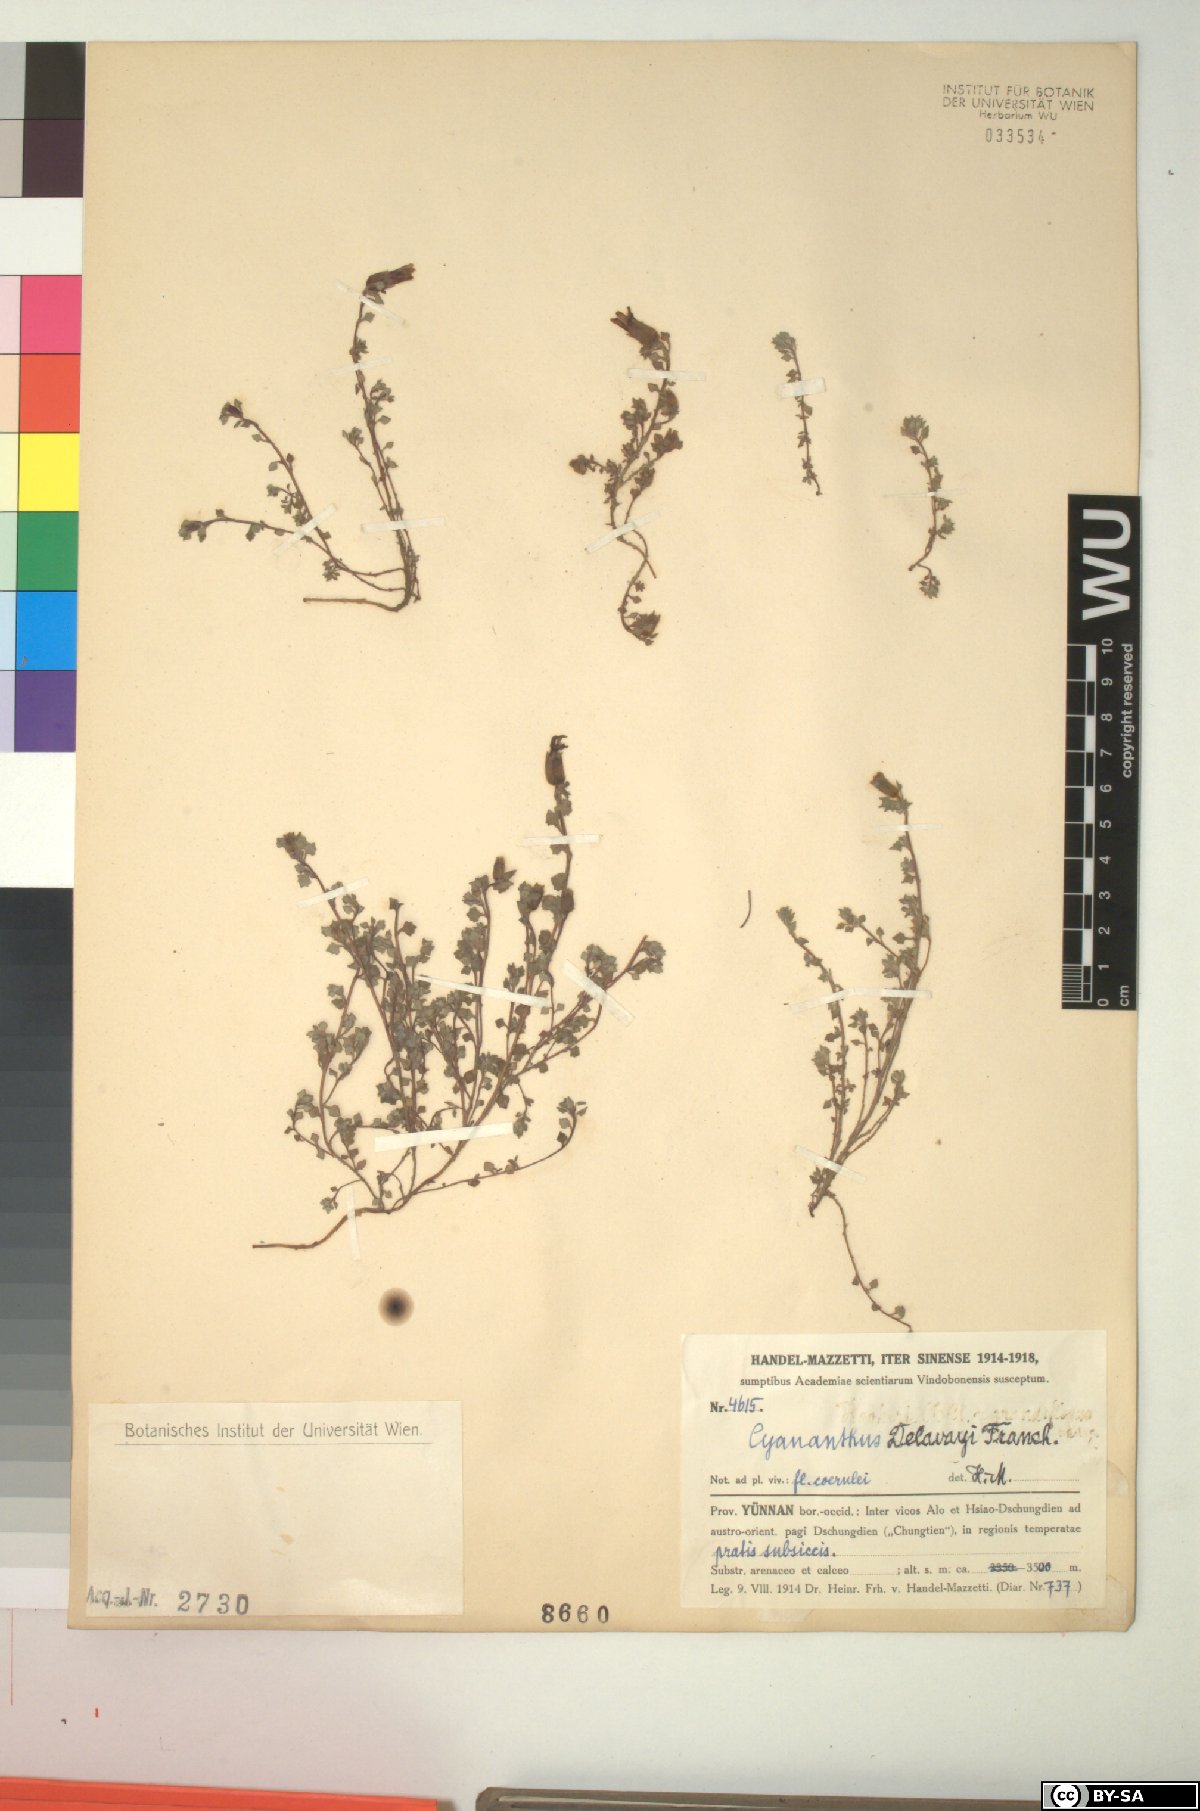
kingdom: Plantae
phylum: Tracheophyta
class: Magnoliopsida
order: Asterales
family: Campanulaceae
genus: Cyananthus
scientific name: Cyananthus delavayi
